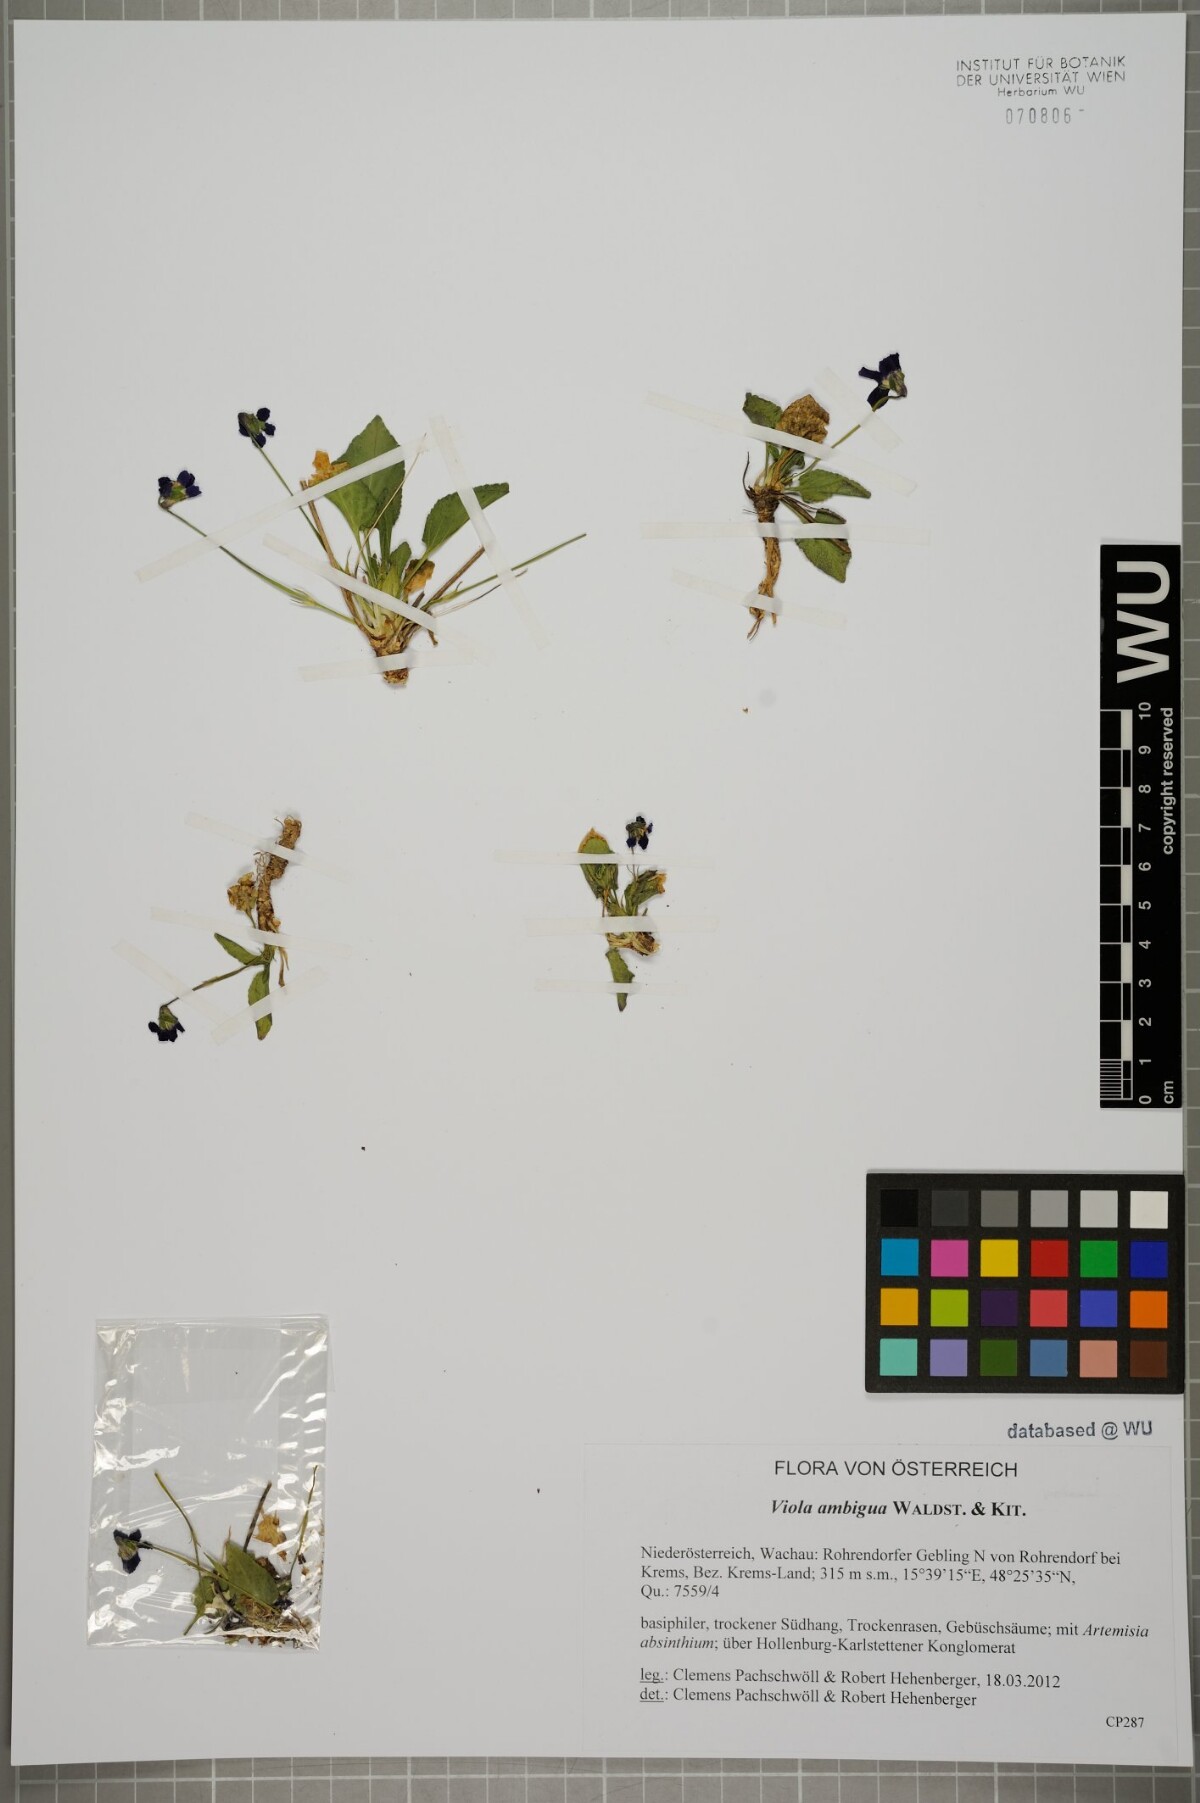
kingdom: Plantae
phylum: Tracheophyta
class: Magnoliopsida
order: Malpighiales
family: Violaceae
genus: Viola
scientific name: Viola ambigua
